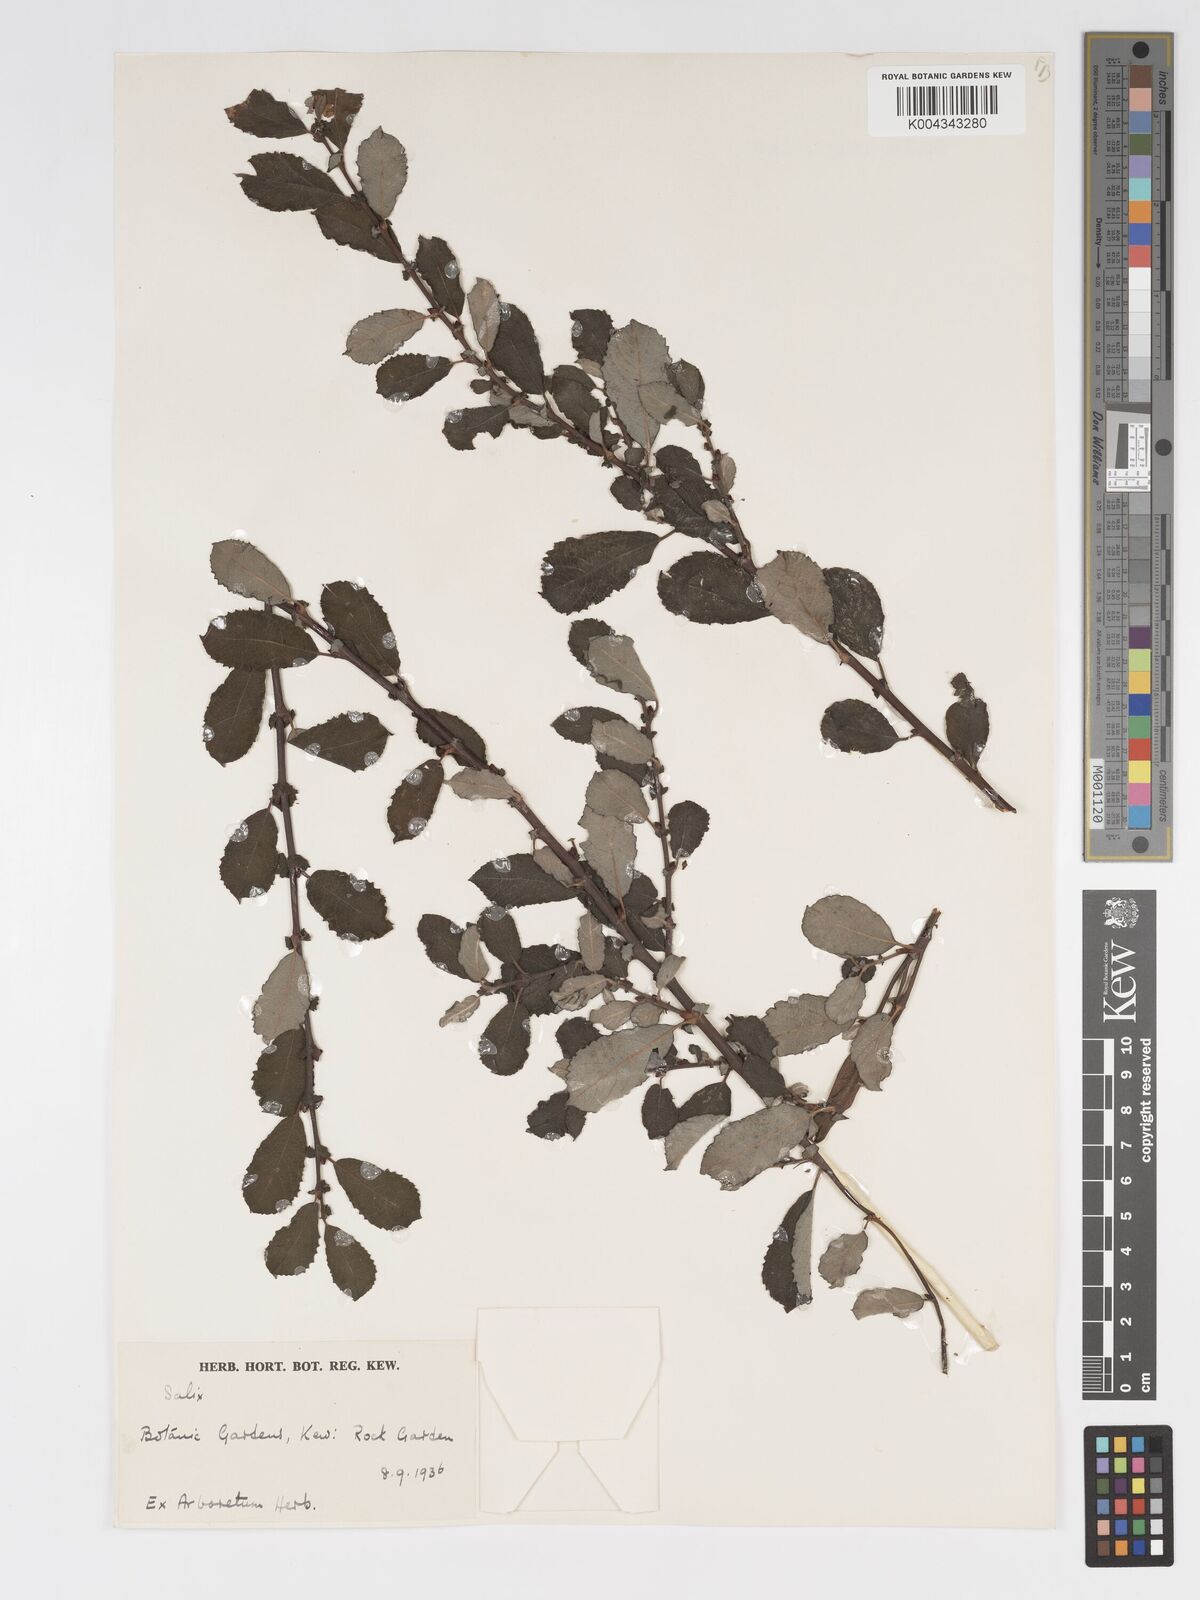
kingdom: Plantae
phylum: Tracheophyta
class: Magnoliopsida
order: Malpighiales
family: Salicaceae
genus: Salix
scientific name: Salix aurita
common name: Eared willow
